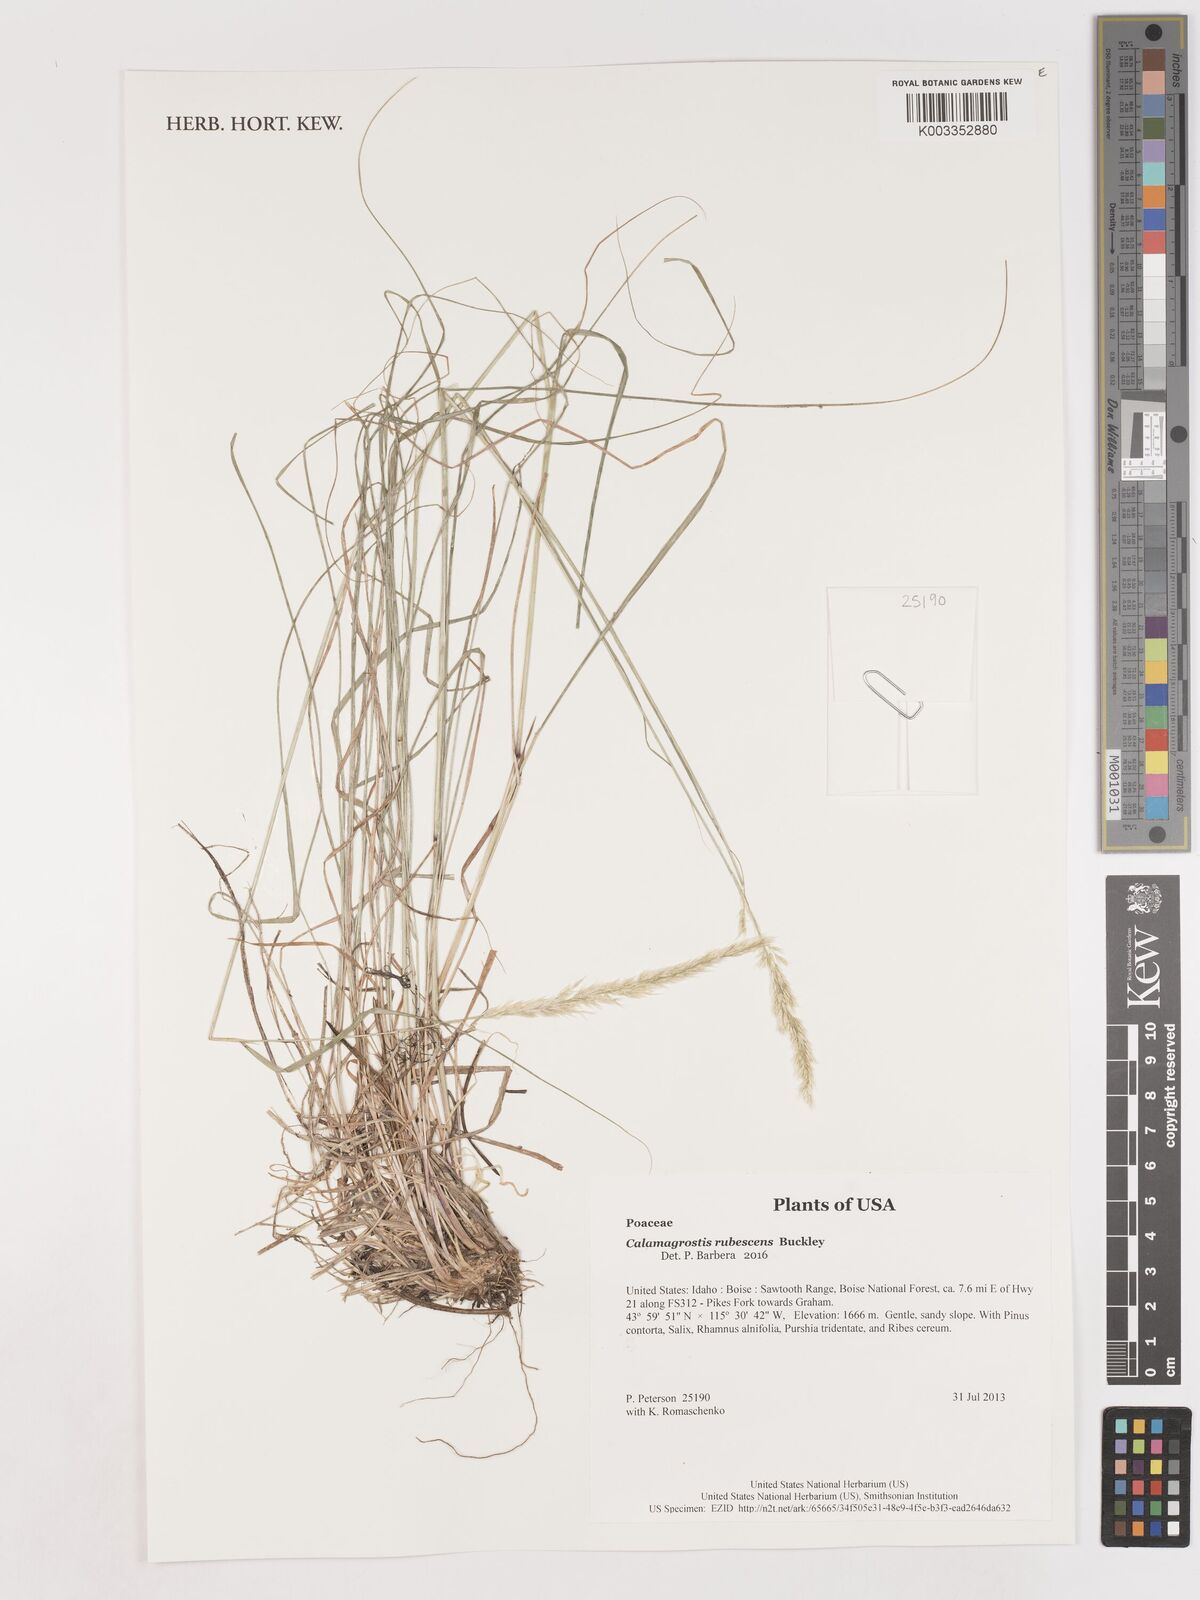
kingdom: Plantae
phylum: Tracheophyta
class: Liliopsida
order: Poales
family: Poaceae
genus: Calamagrostis
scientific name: Calamagrostis rubescens
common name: Pine grass
